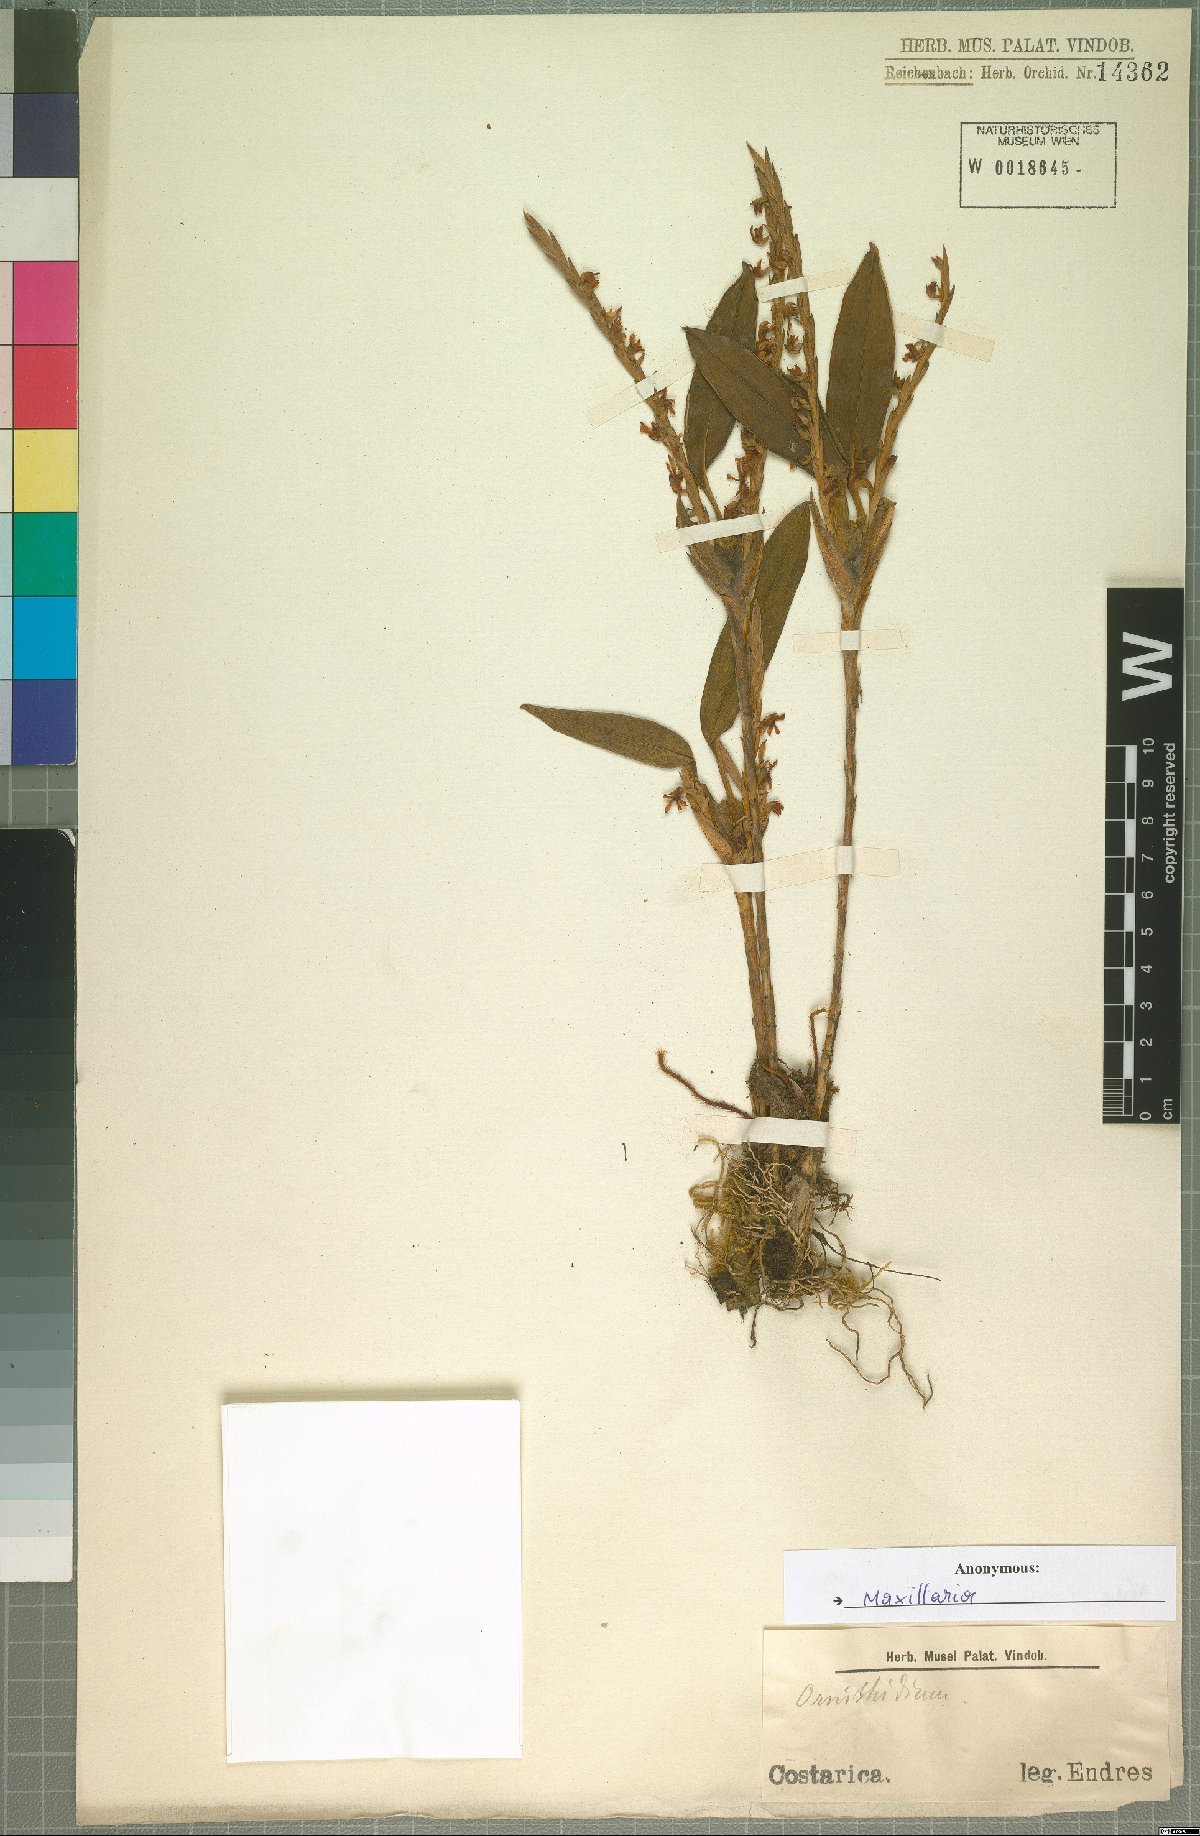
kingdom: Plantae
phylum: Tracheophyta
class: Liliopsida
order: Asparagales
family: Orchidaceae
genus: Maxillaria
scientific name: Maxillaria
